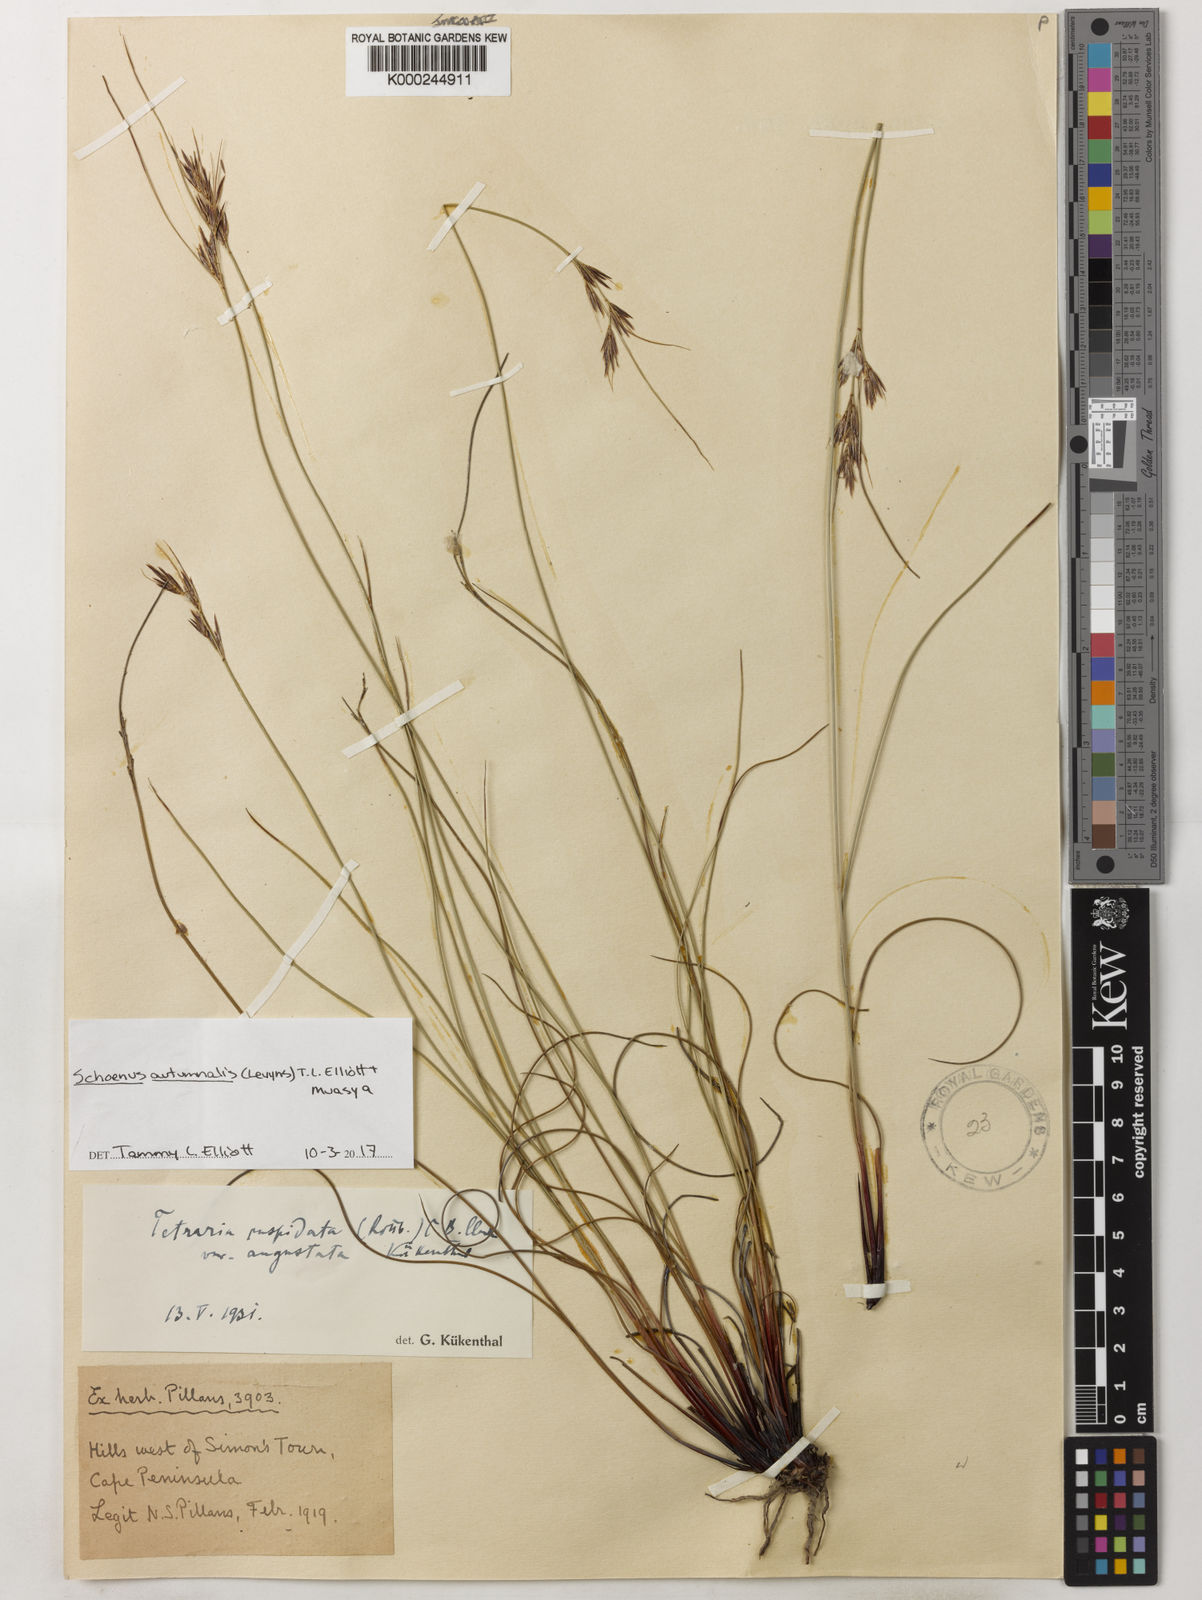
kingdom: Plantae
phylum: Tracheophyta
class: Liliopsida
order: Poales
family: Cyperaceae
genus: Schoenus
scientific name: Schoenus ligulatus
